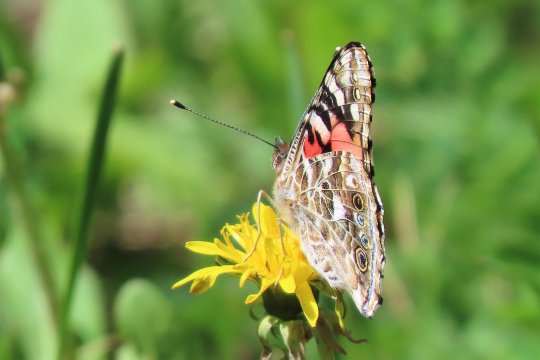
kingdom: Animalia
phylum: Arthropoda
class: Insecta
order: Lepidoptera
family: Nymphalidae
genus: Vanessa
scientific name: Vanessa cardui
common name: Painted Lady
